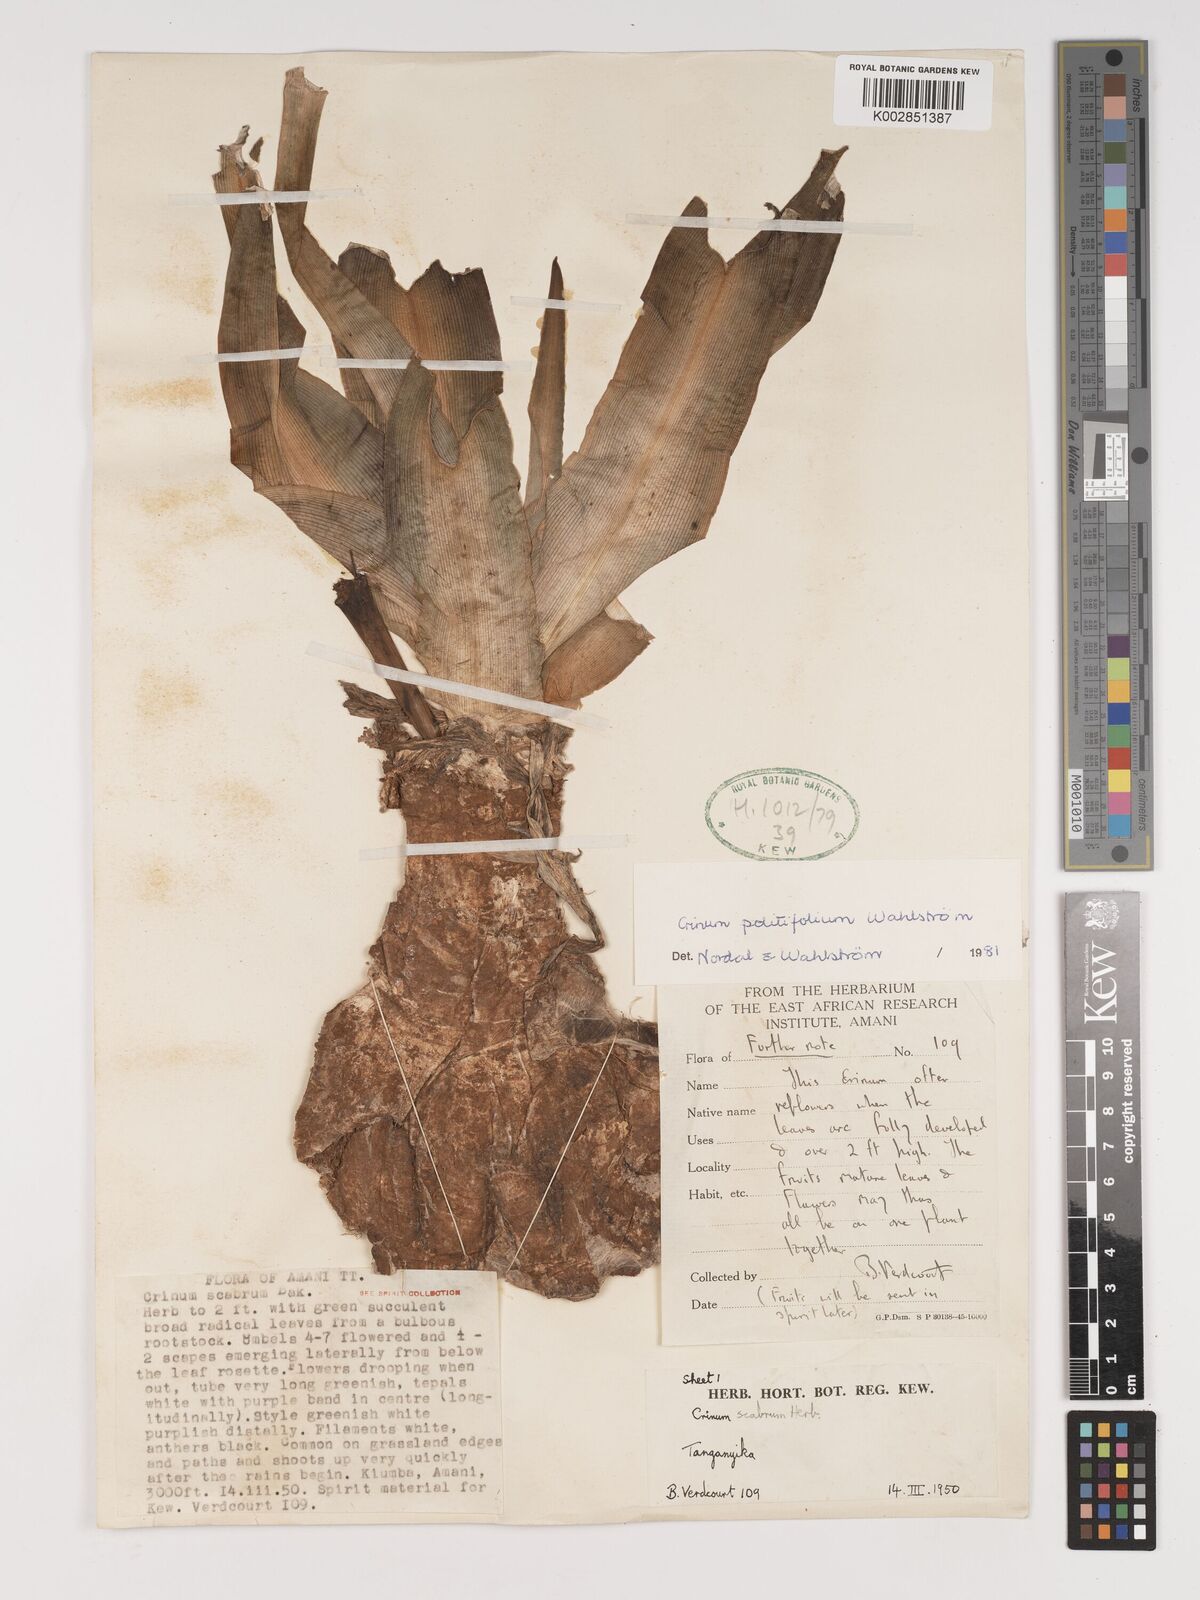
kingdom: Plantae
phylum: Tracheophyta
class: Liliopsida
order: Asparagales
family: Amaryllidaceae
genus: Crinum
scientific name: Crinum politifolium
